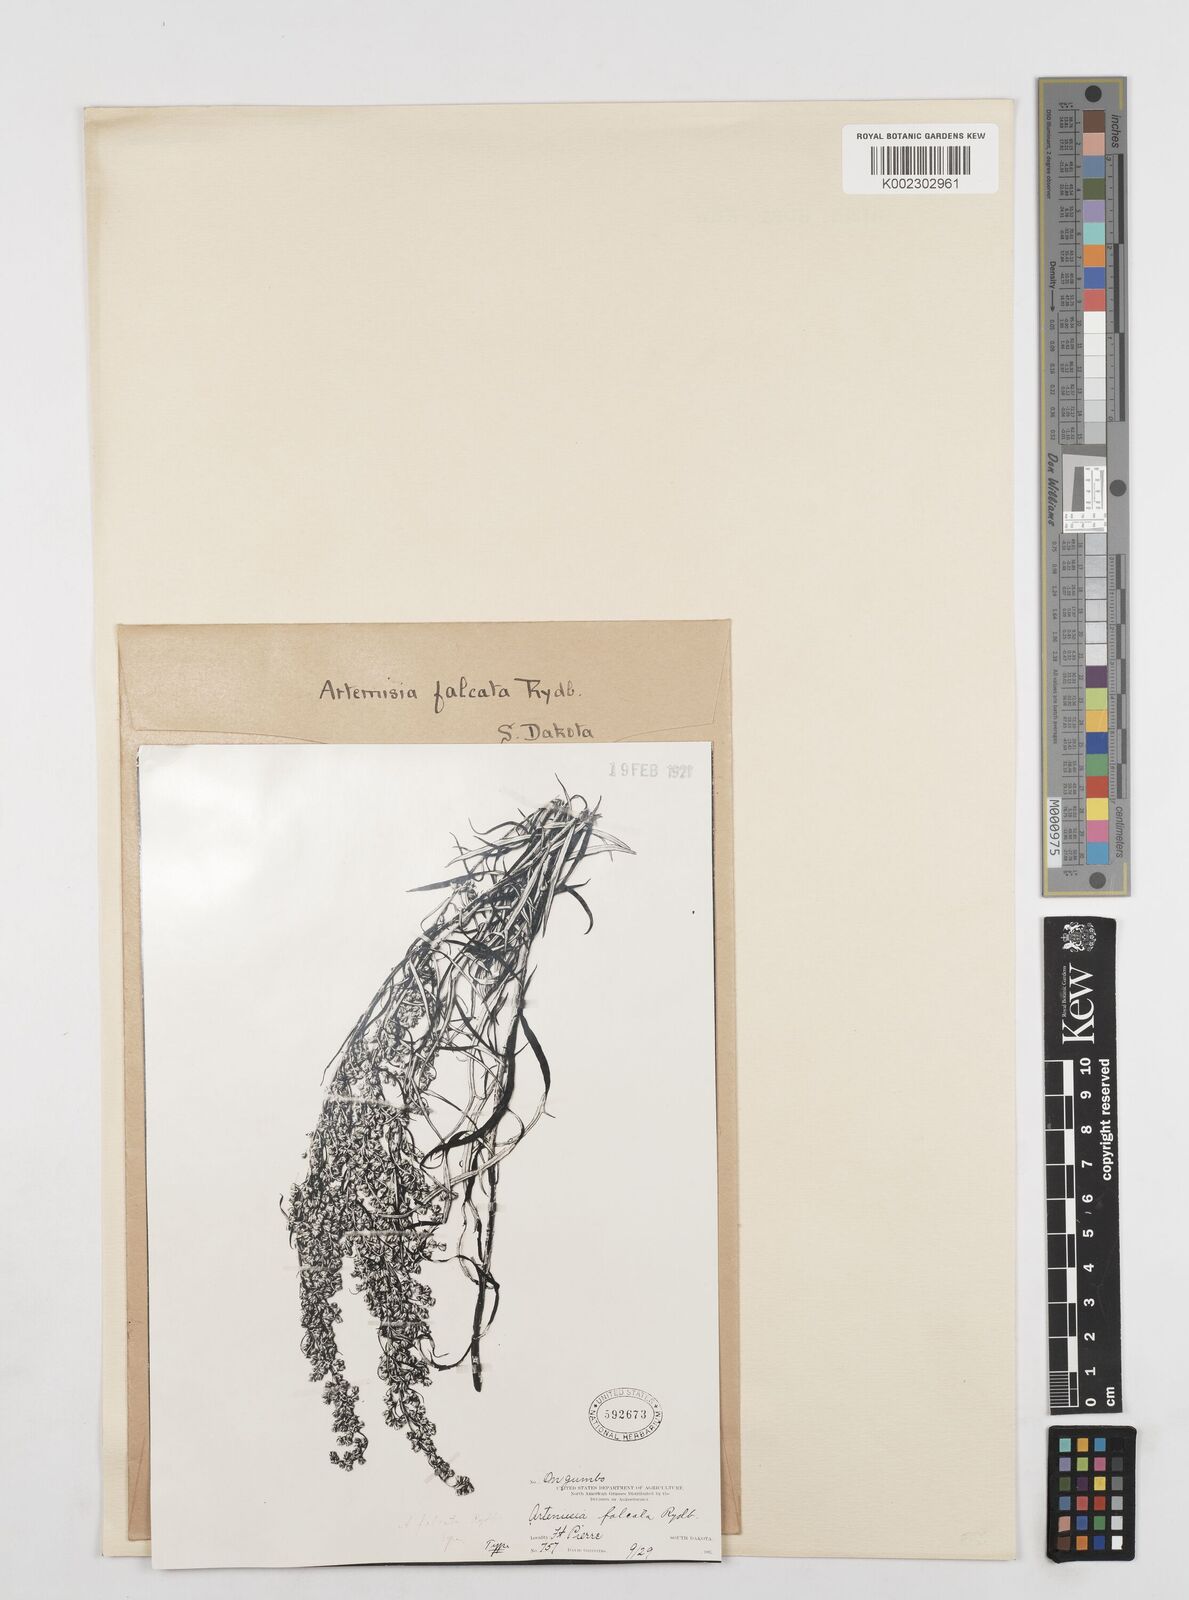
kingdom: Plantae
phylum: Tracheophyta
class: Magnoliopsida
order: Asterales
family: Asteraceae
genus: Artemisia
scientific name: Artemisia longifolia
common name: Long-leaved mugwort
